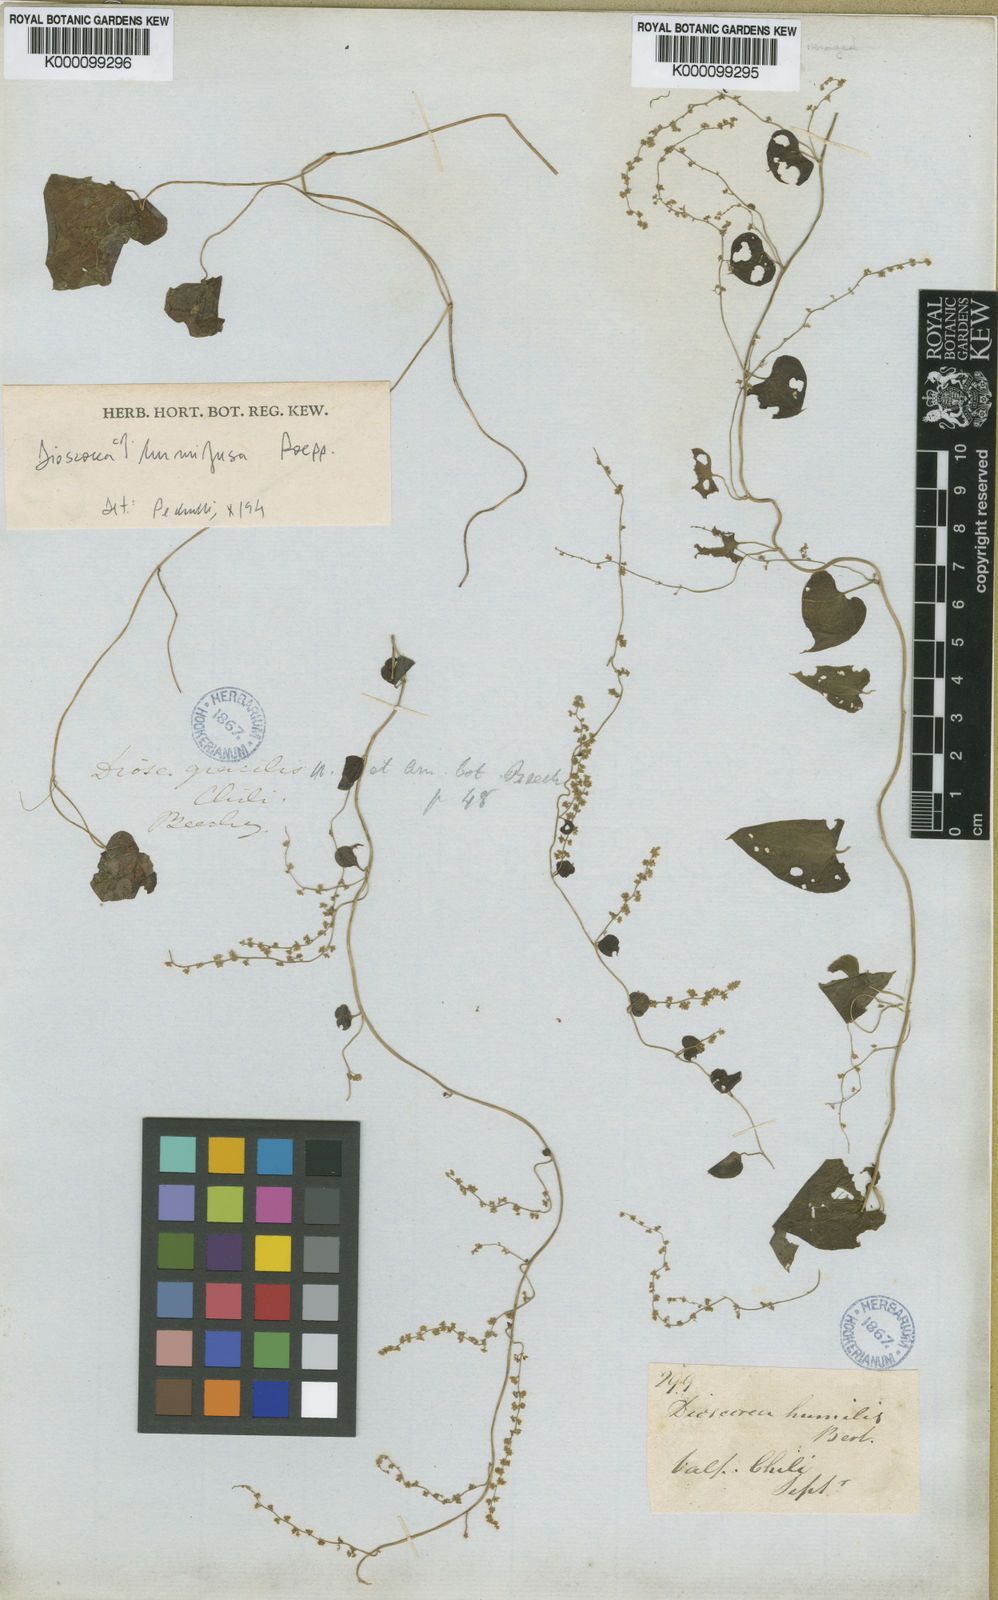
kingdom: Plantae
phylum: Tracheophyta
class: Liliopsida
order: Dioscoreales
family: Dioscoreaceae
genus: Dioscorea
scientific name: Dioscorea gracilis
